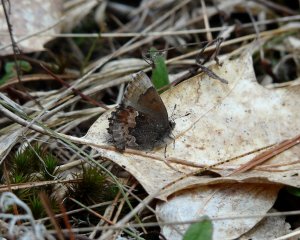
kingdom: Animalia
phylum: Arthropoda
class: Insecta
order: Lepidoptera
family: Lycaenidae
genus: Incisalia
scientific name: Incisalia henrici
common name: Henry's Elfin
